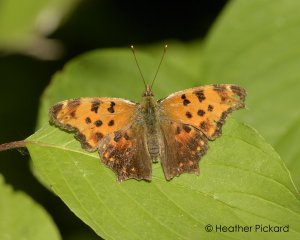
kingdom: Animalia
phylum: Arthropoda
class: Insecta
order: Lepidoptera
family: Nymphalidae
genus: Polygonia
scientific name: Polygonia comma
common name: Eastern Comma
